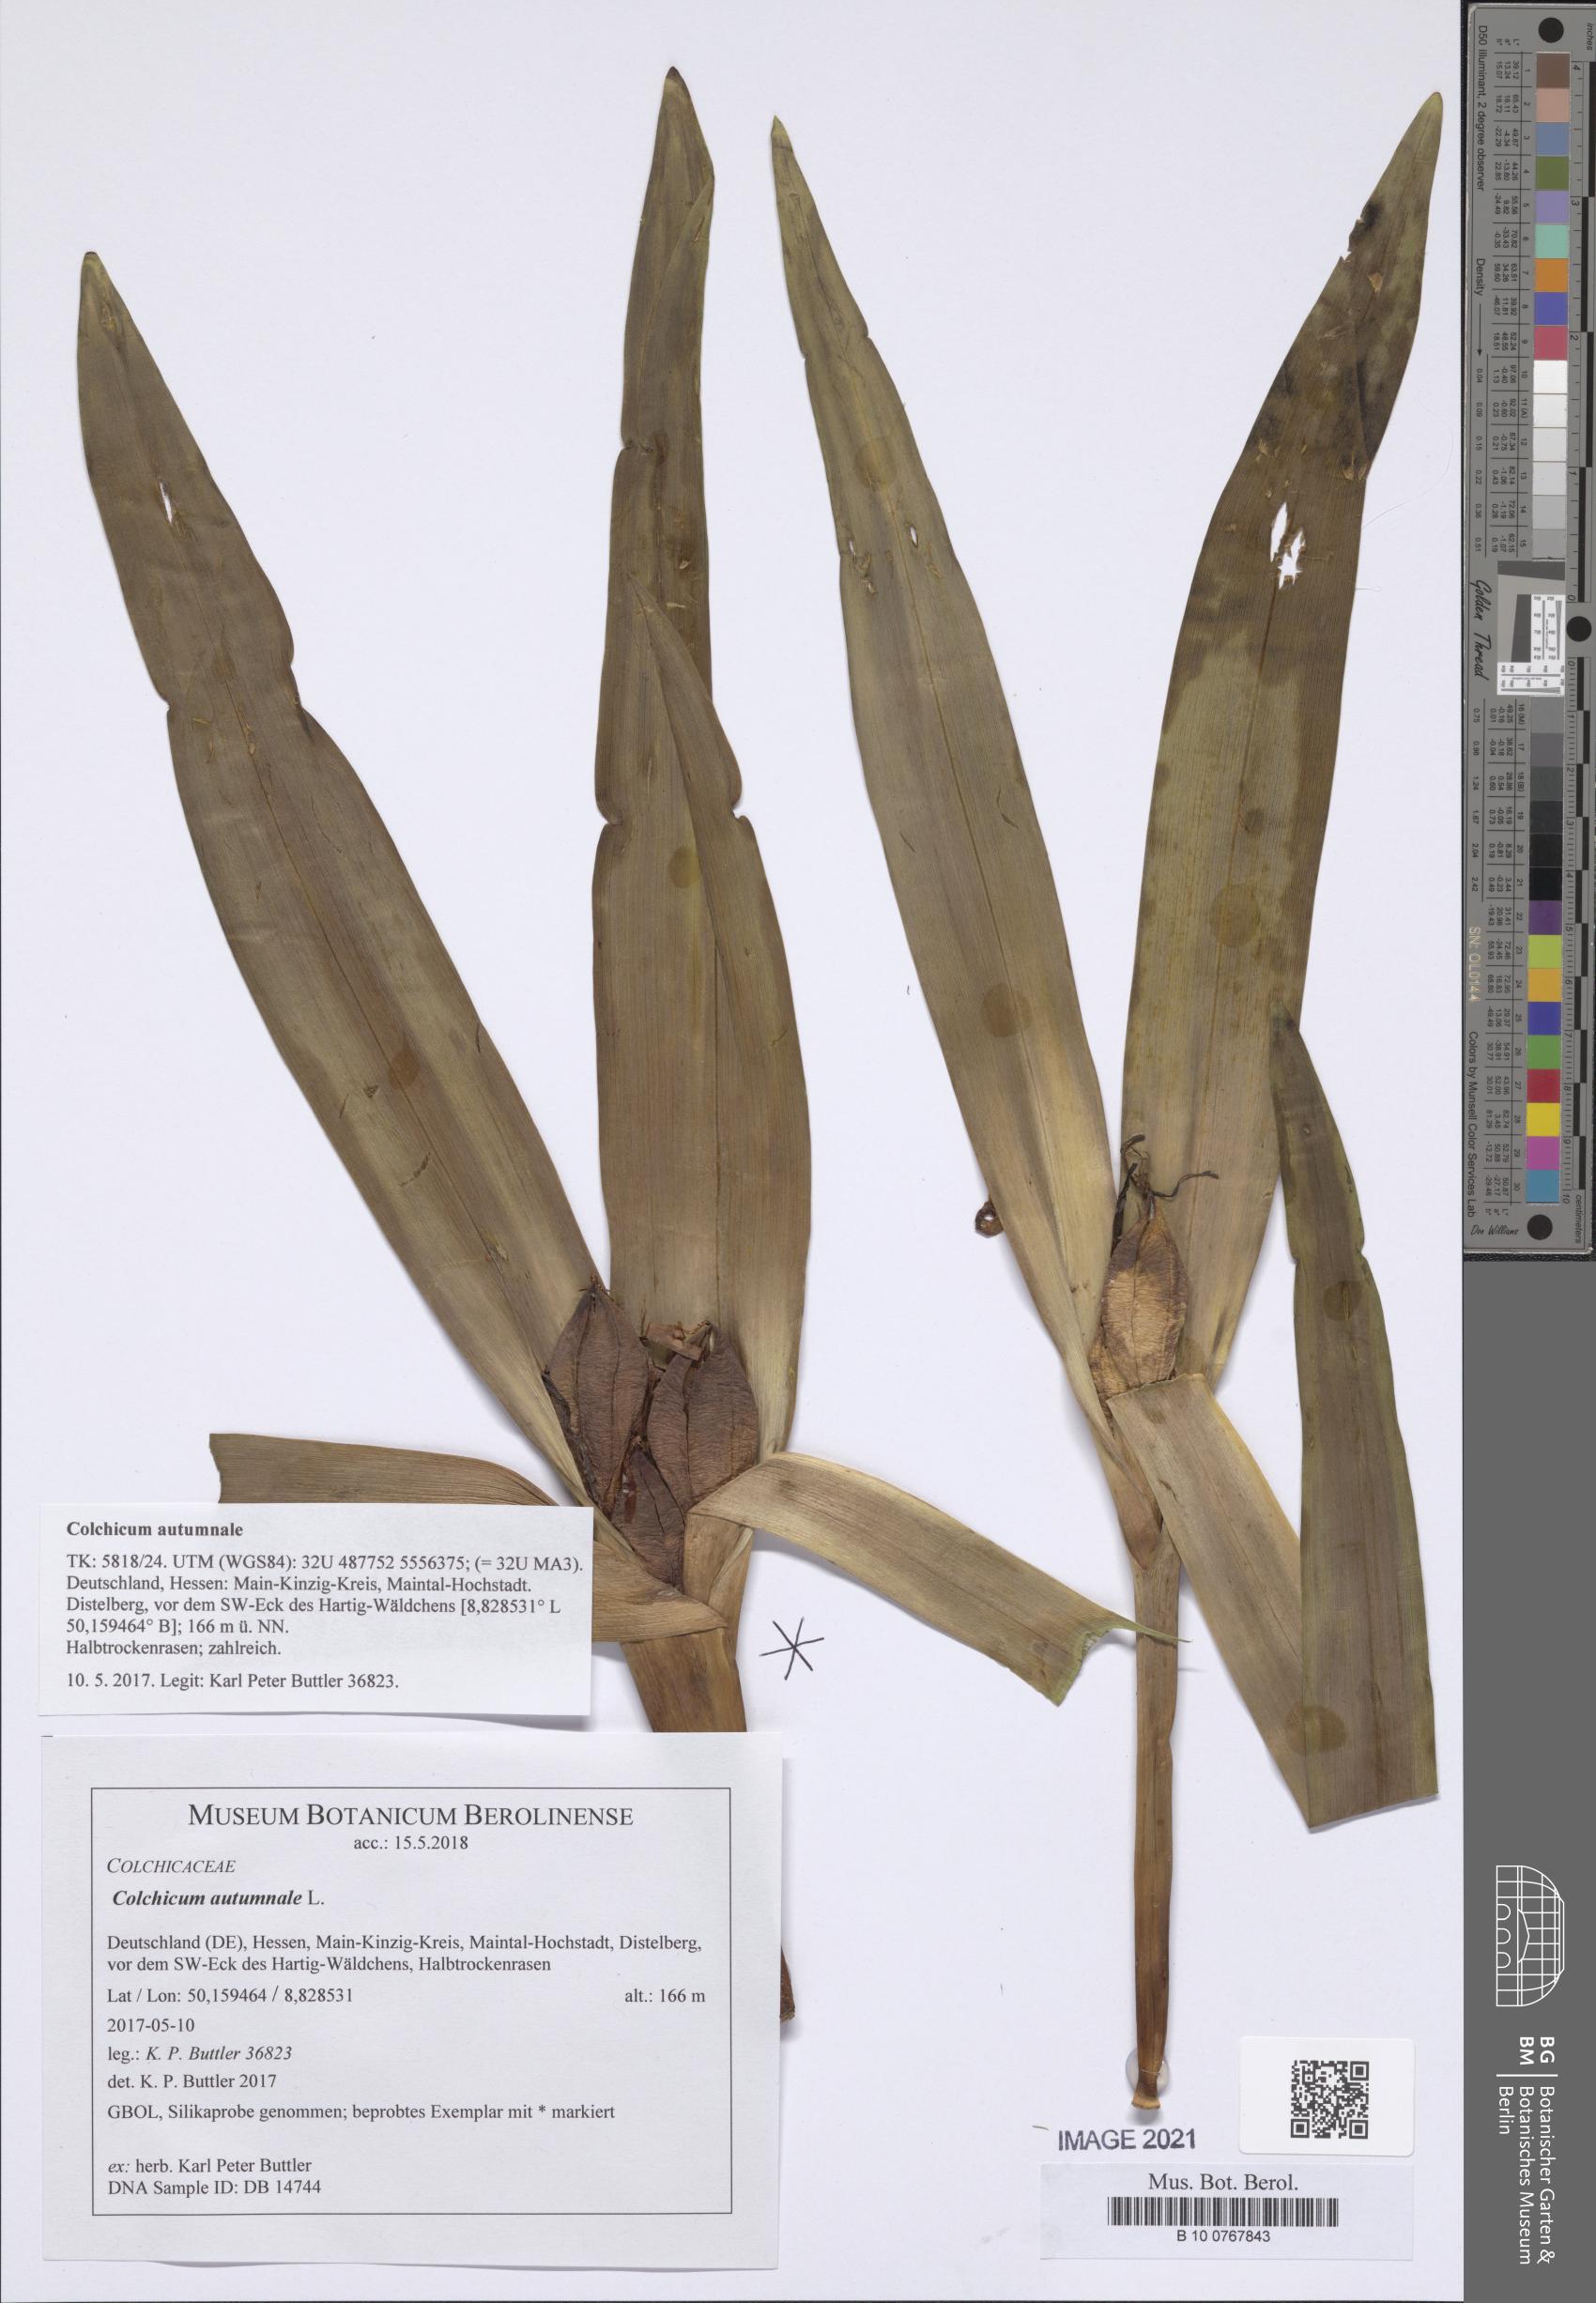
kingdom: Plantae
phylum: Tracheophyta
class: Liliopsida
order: Liliales
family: Colchicaceae
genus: Colchicum
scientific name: Colchicum autumnale
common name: Autumn crocus
